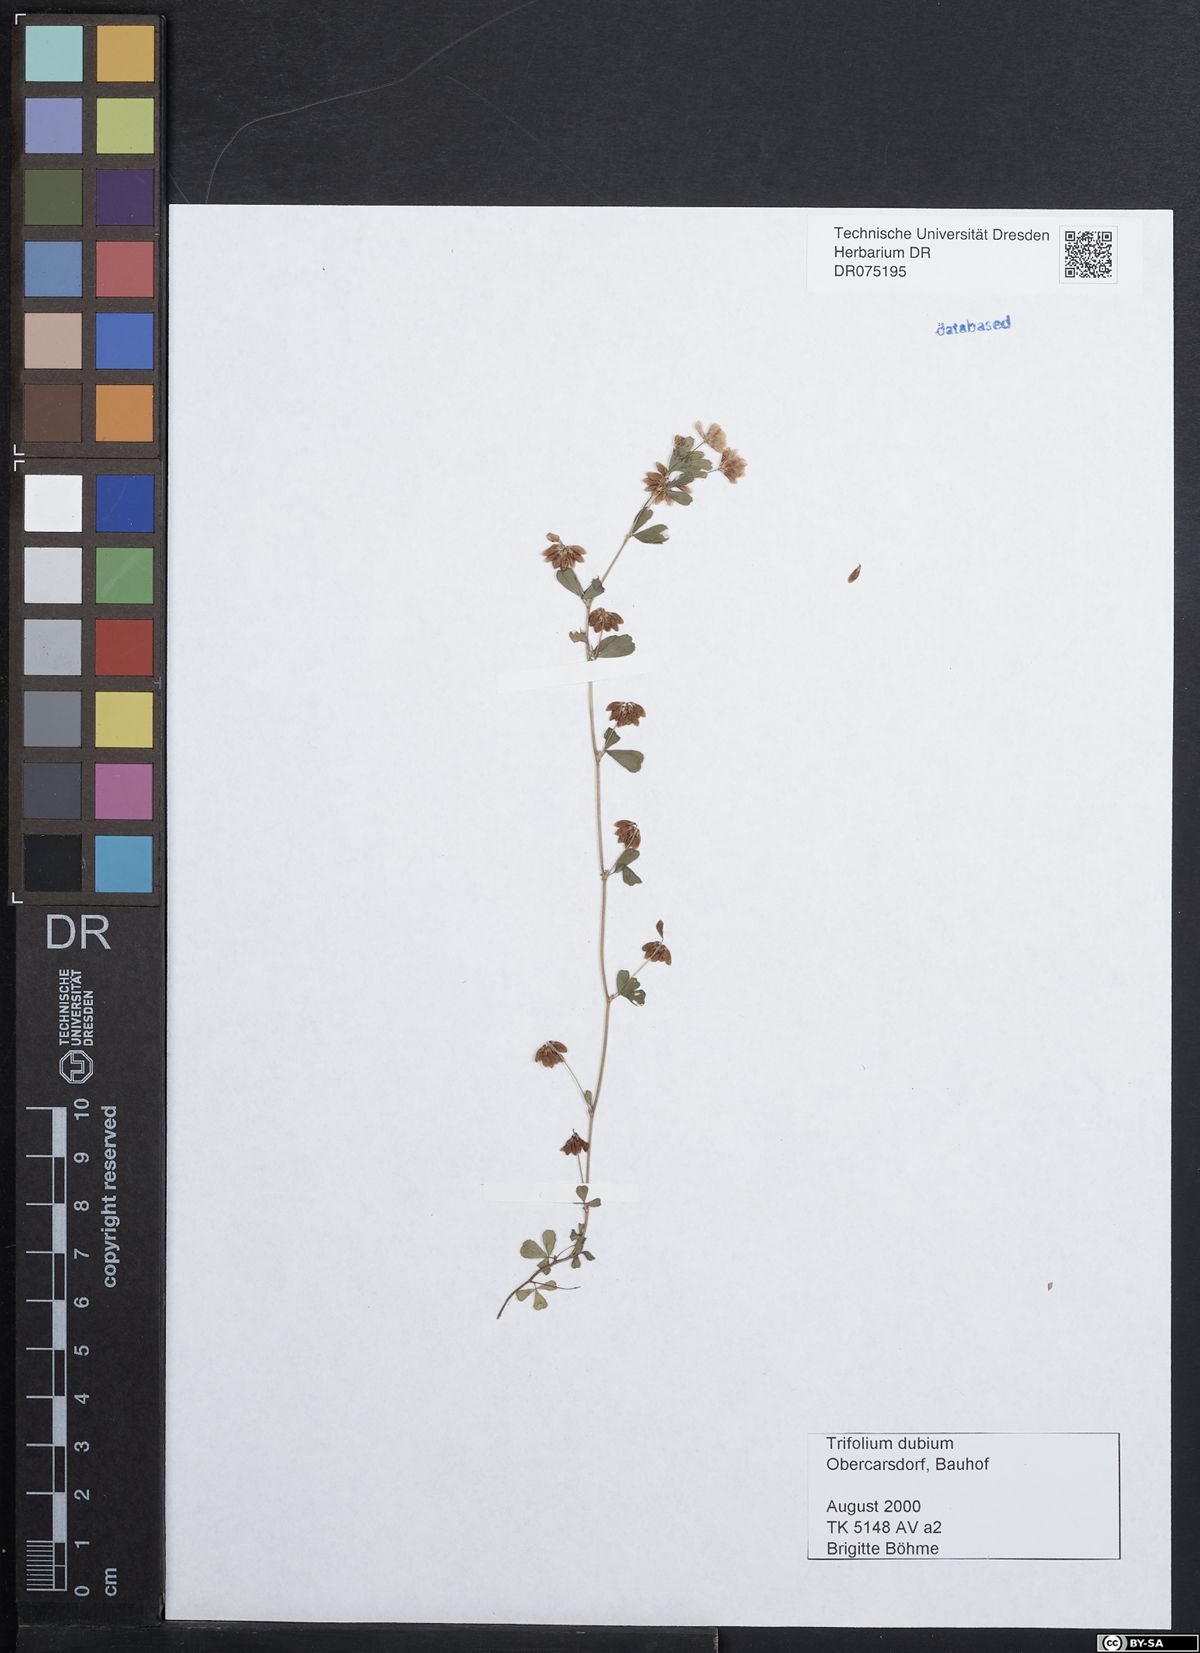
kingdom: Plantae
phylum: Tracheophyta
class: Magnoliopsida
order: Fabales
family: Fabaceae
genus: Trifolium
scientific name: Trifolium dubium
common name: Suckling clover
